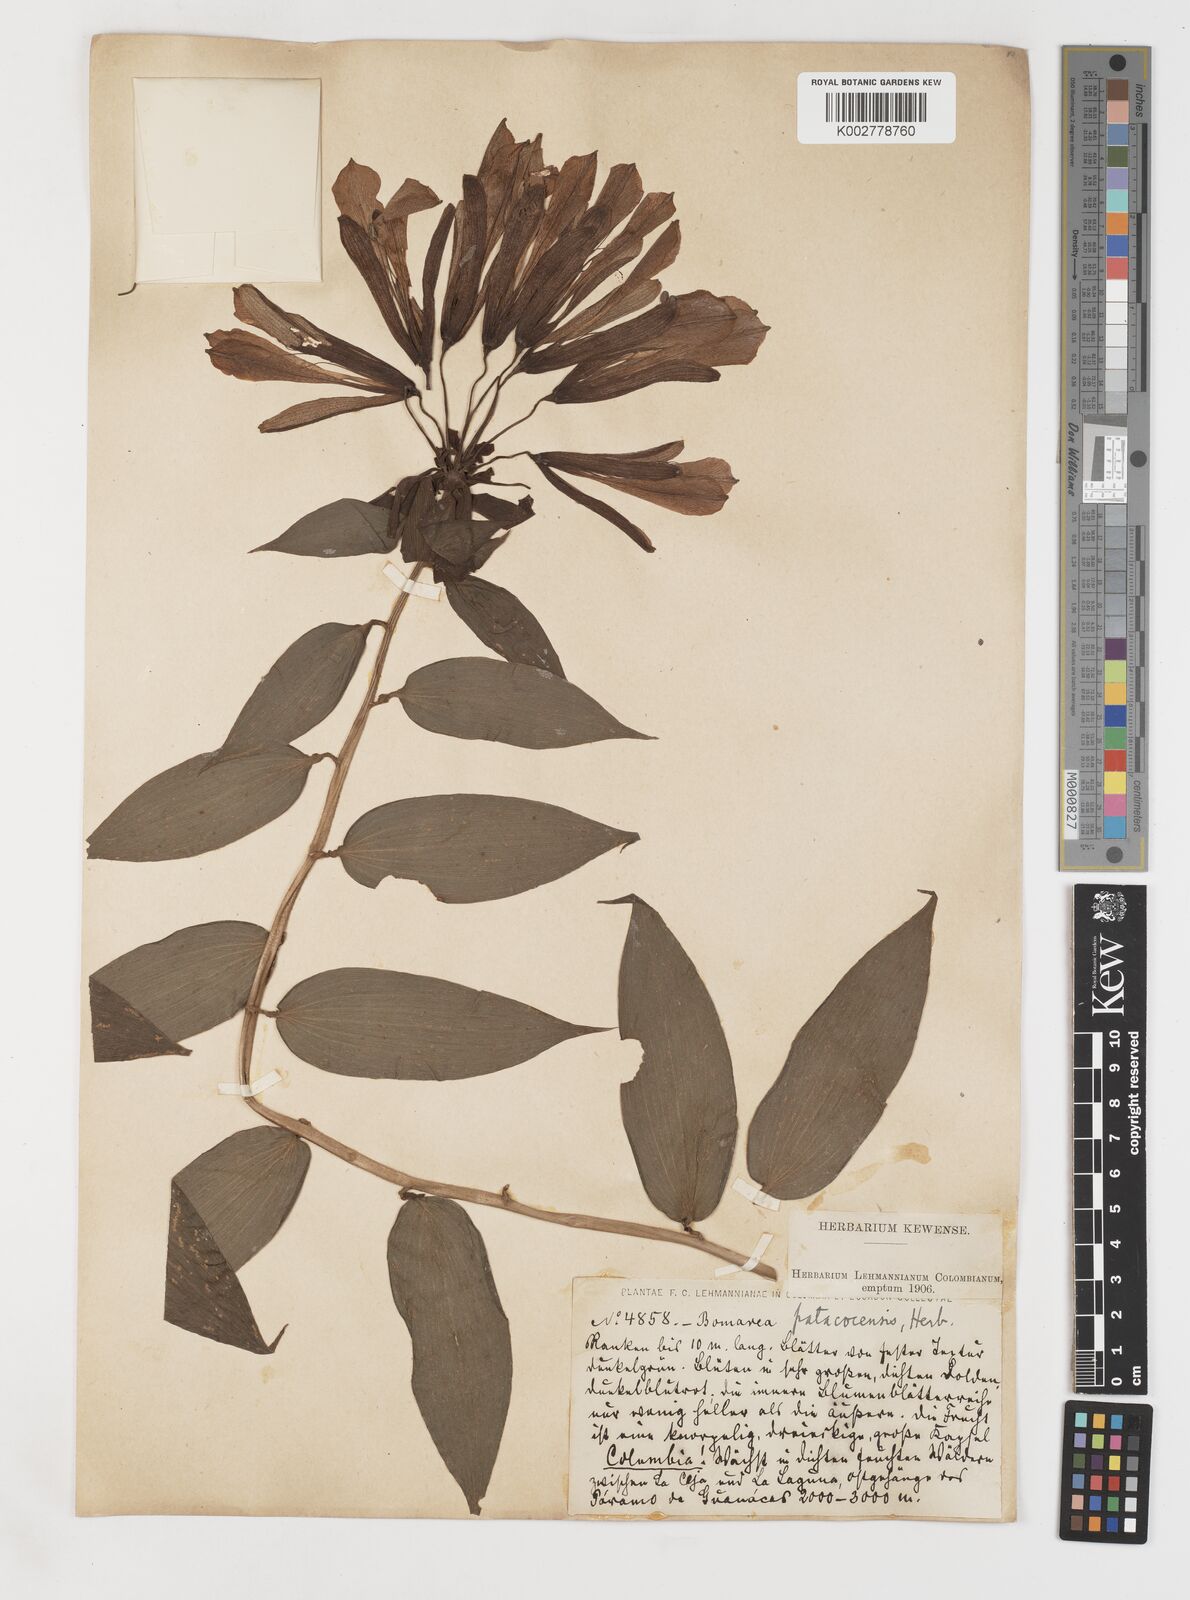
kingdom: Plantae
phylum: Tracheophyta
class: Liliopsida
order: Liliales
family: Alstroemeriaceae
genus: Bomarea
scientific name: Bomarea andreana
